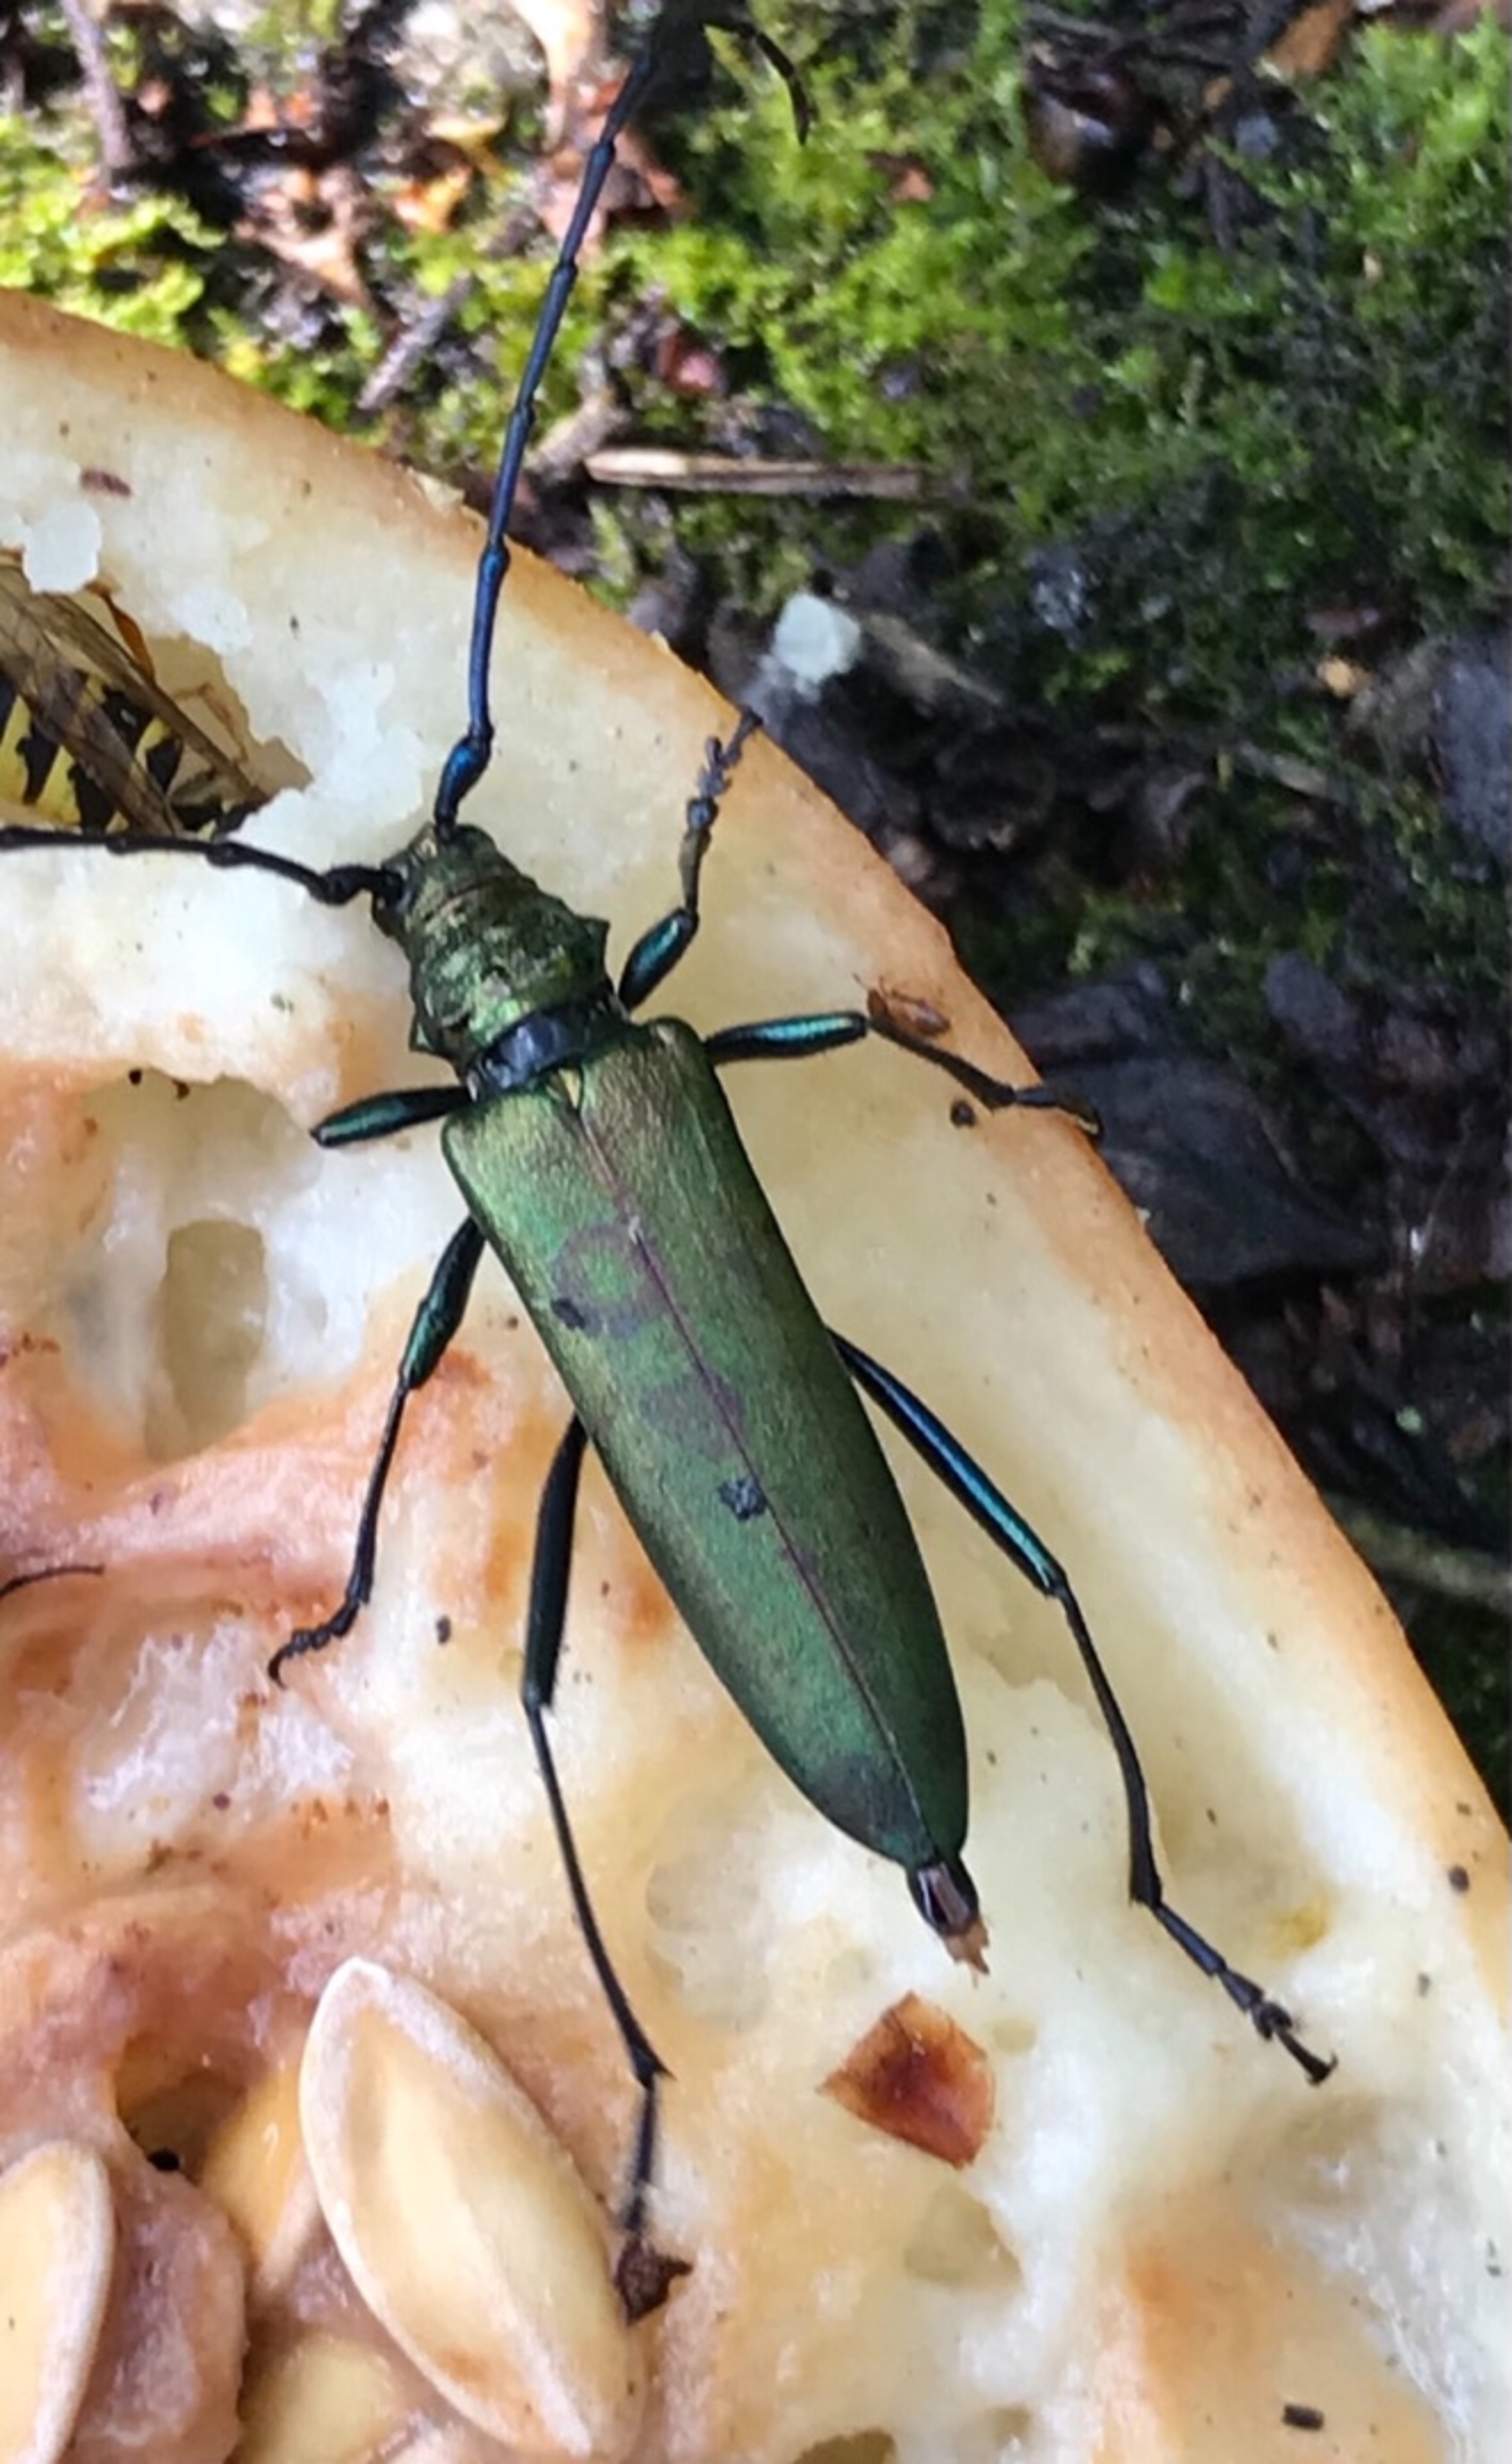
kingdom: Animalia
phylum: Arthropoda
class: Insecta
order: Coleoptera
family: Cerambycidae
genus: Aromia
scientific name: Aromia moschata
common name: Moskusbuk
